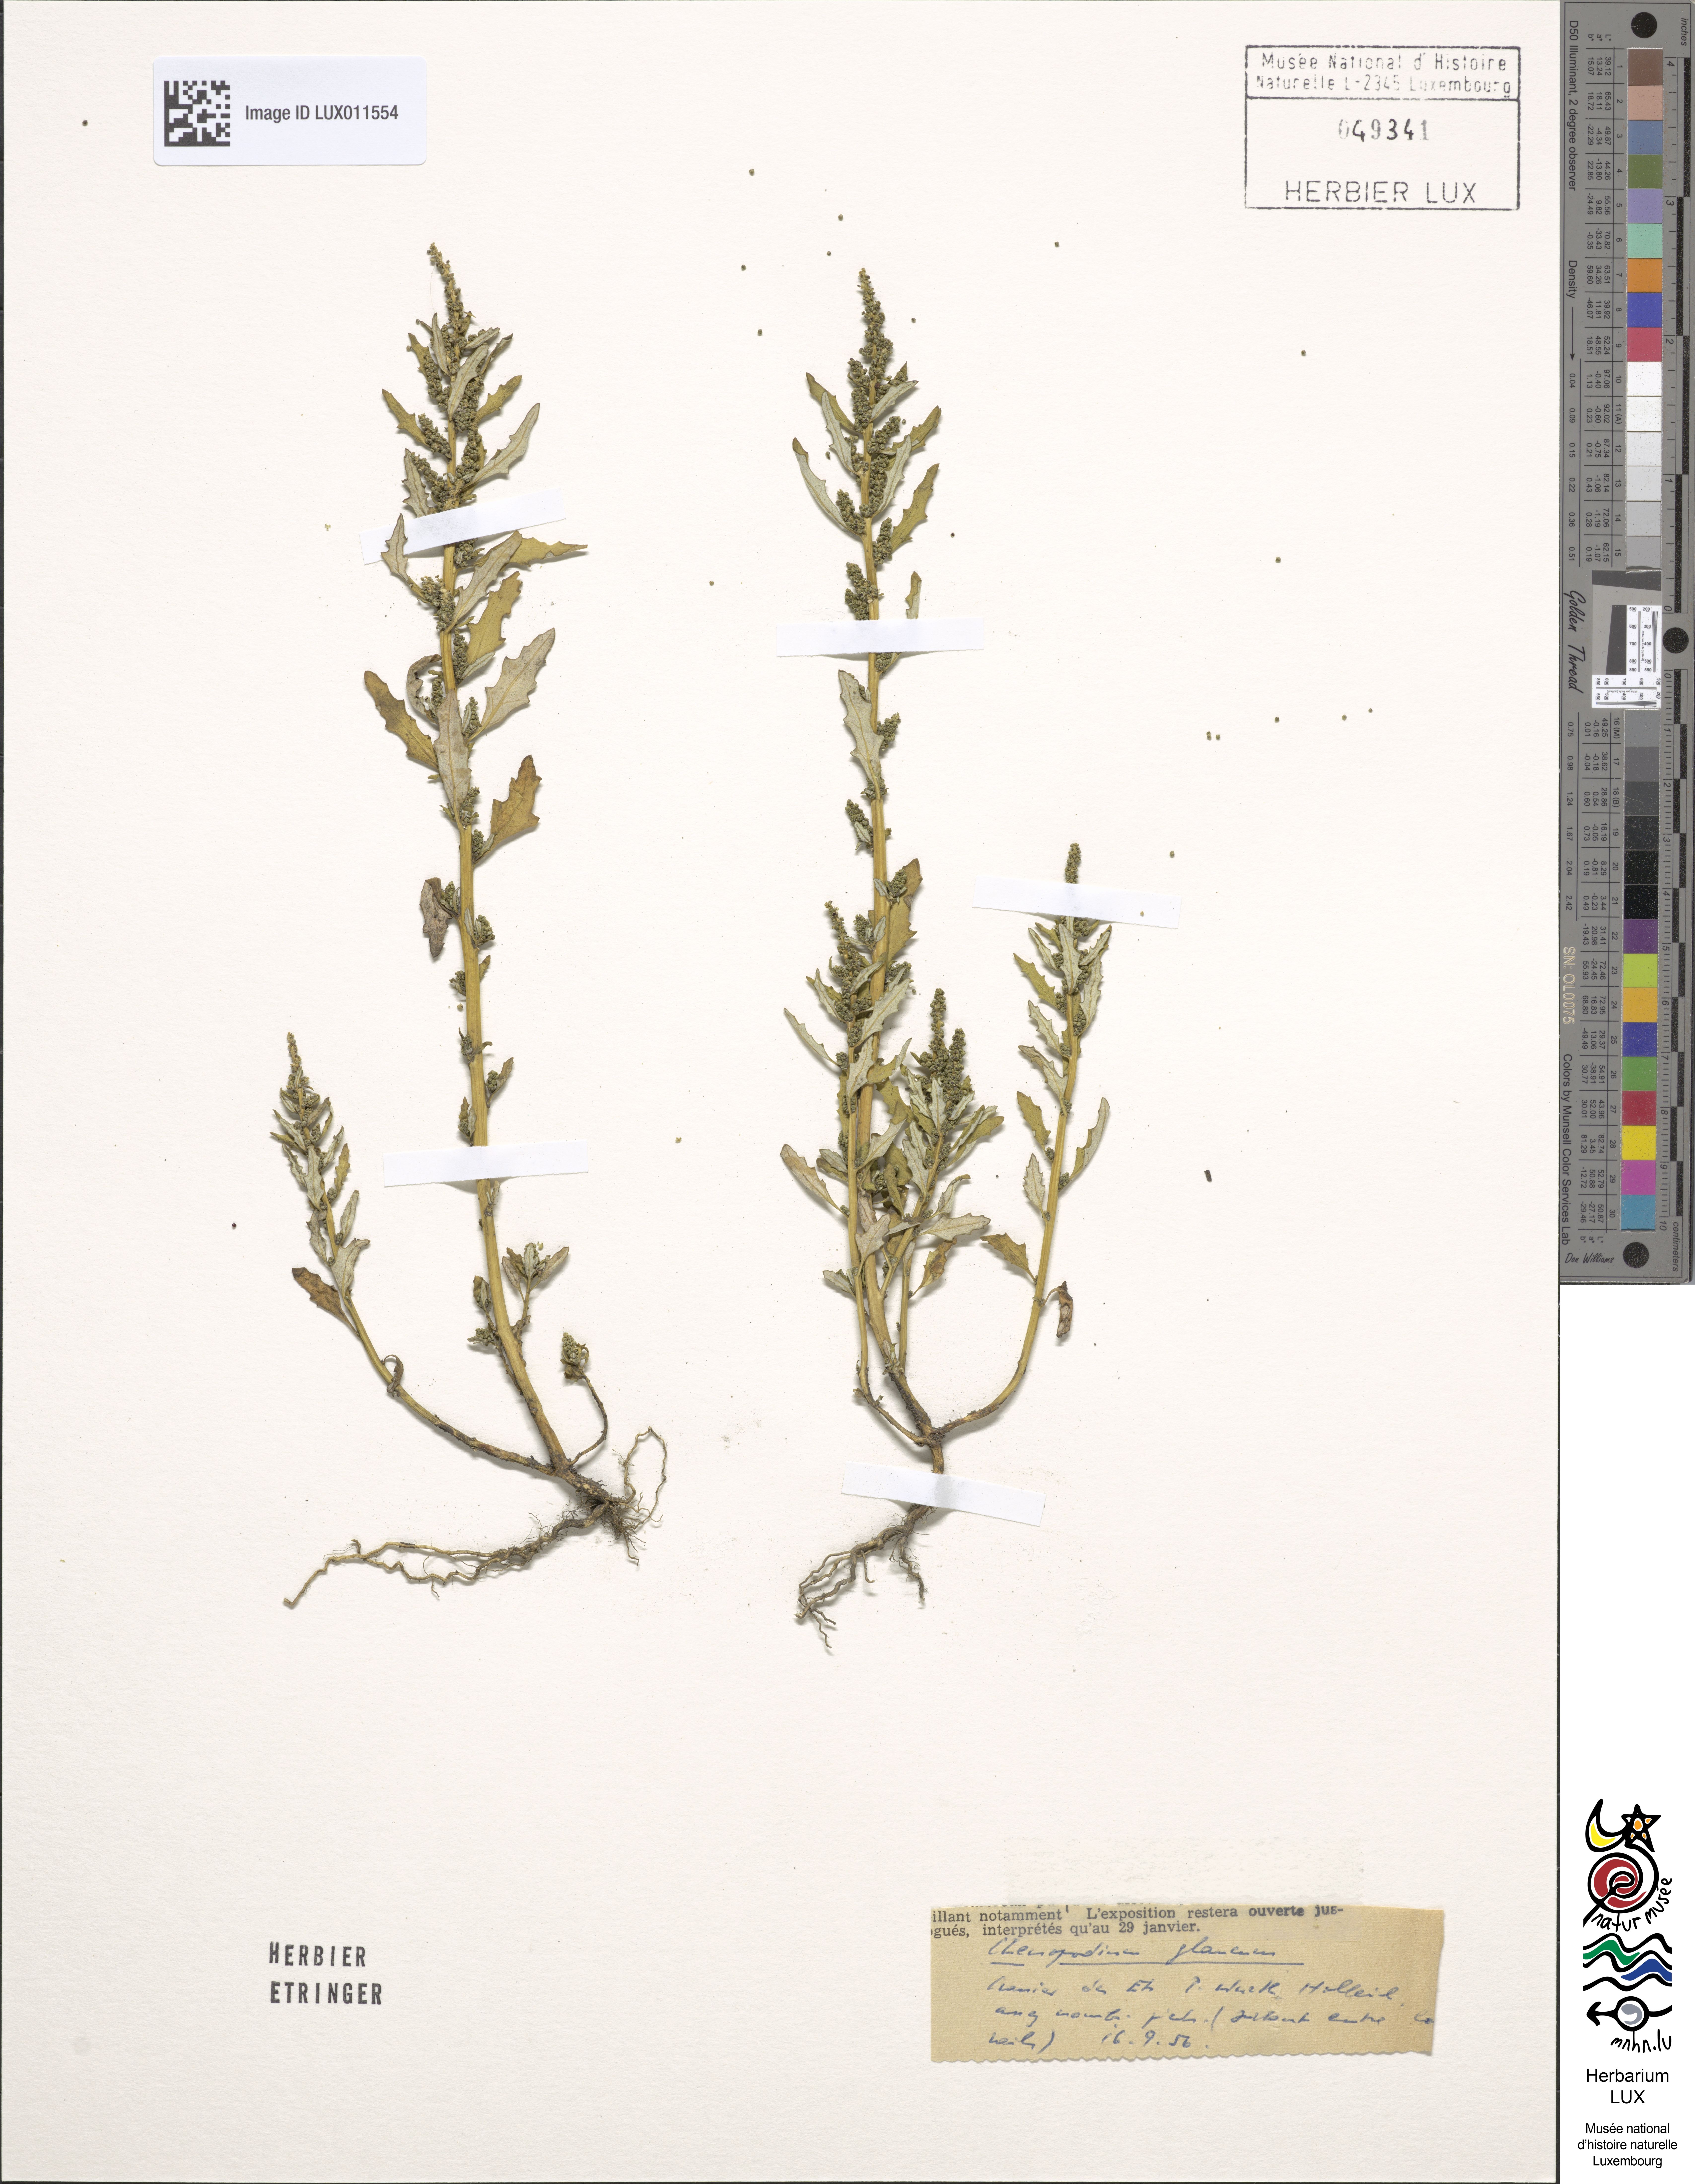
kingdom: Plantae
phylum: Tracheophyta
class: Magnoliopsida
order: Caryophyllales
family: Amaranthaceae
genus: Oxybasis
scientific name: Oxybasis glauca
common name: Glaucous goosefoot
